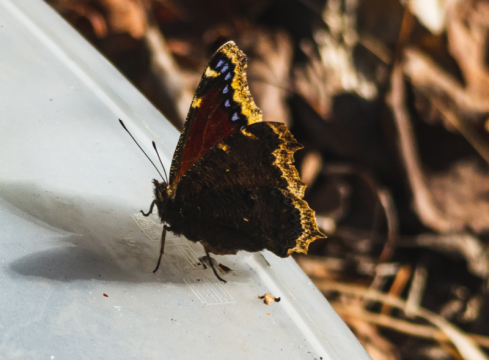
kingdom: Animalia
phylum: Arthropoda
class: Insecta
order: Lepidoptera
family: Nymphalidae
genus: Nymphalis
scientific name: Nymphalis antiopa
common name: Mourning Cloak
